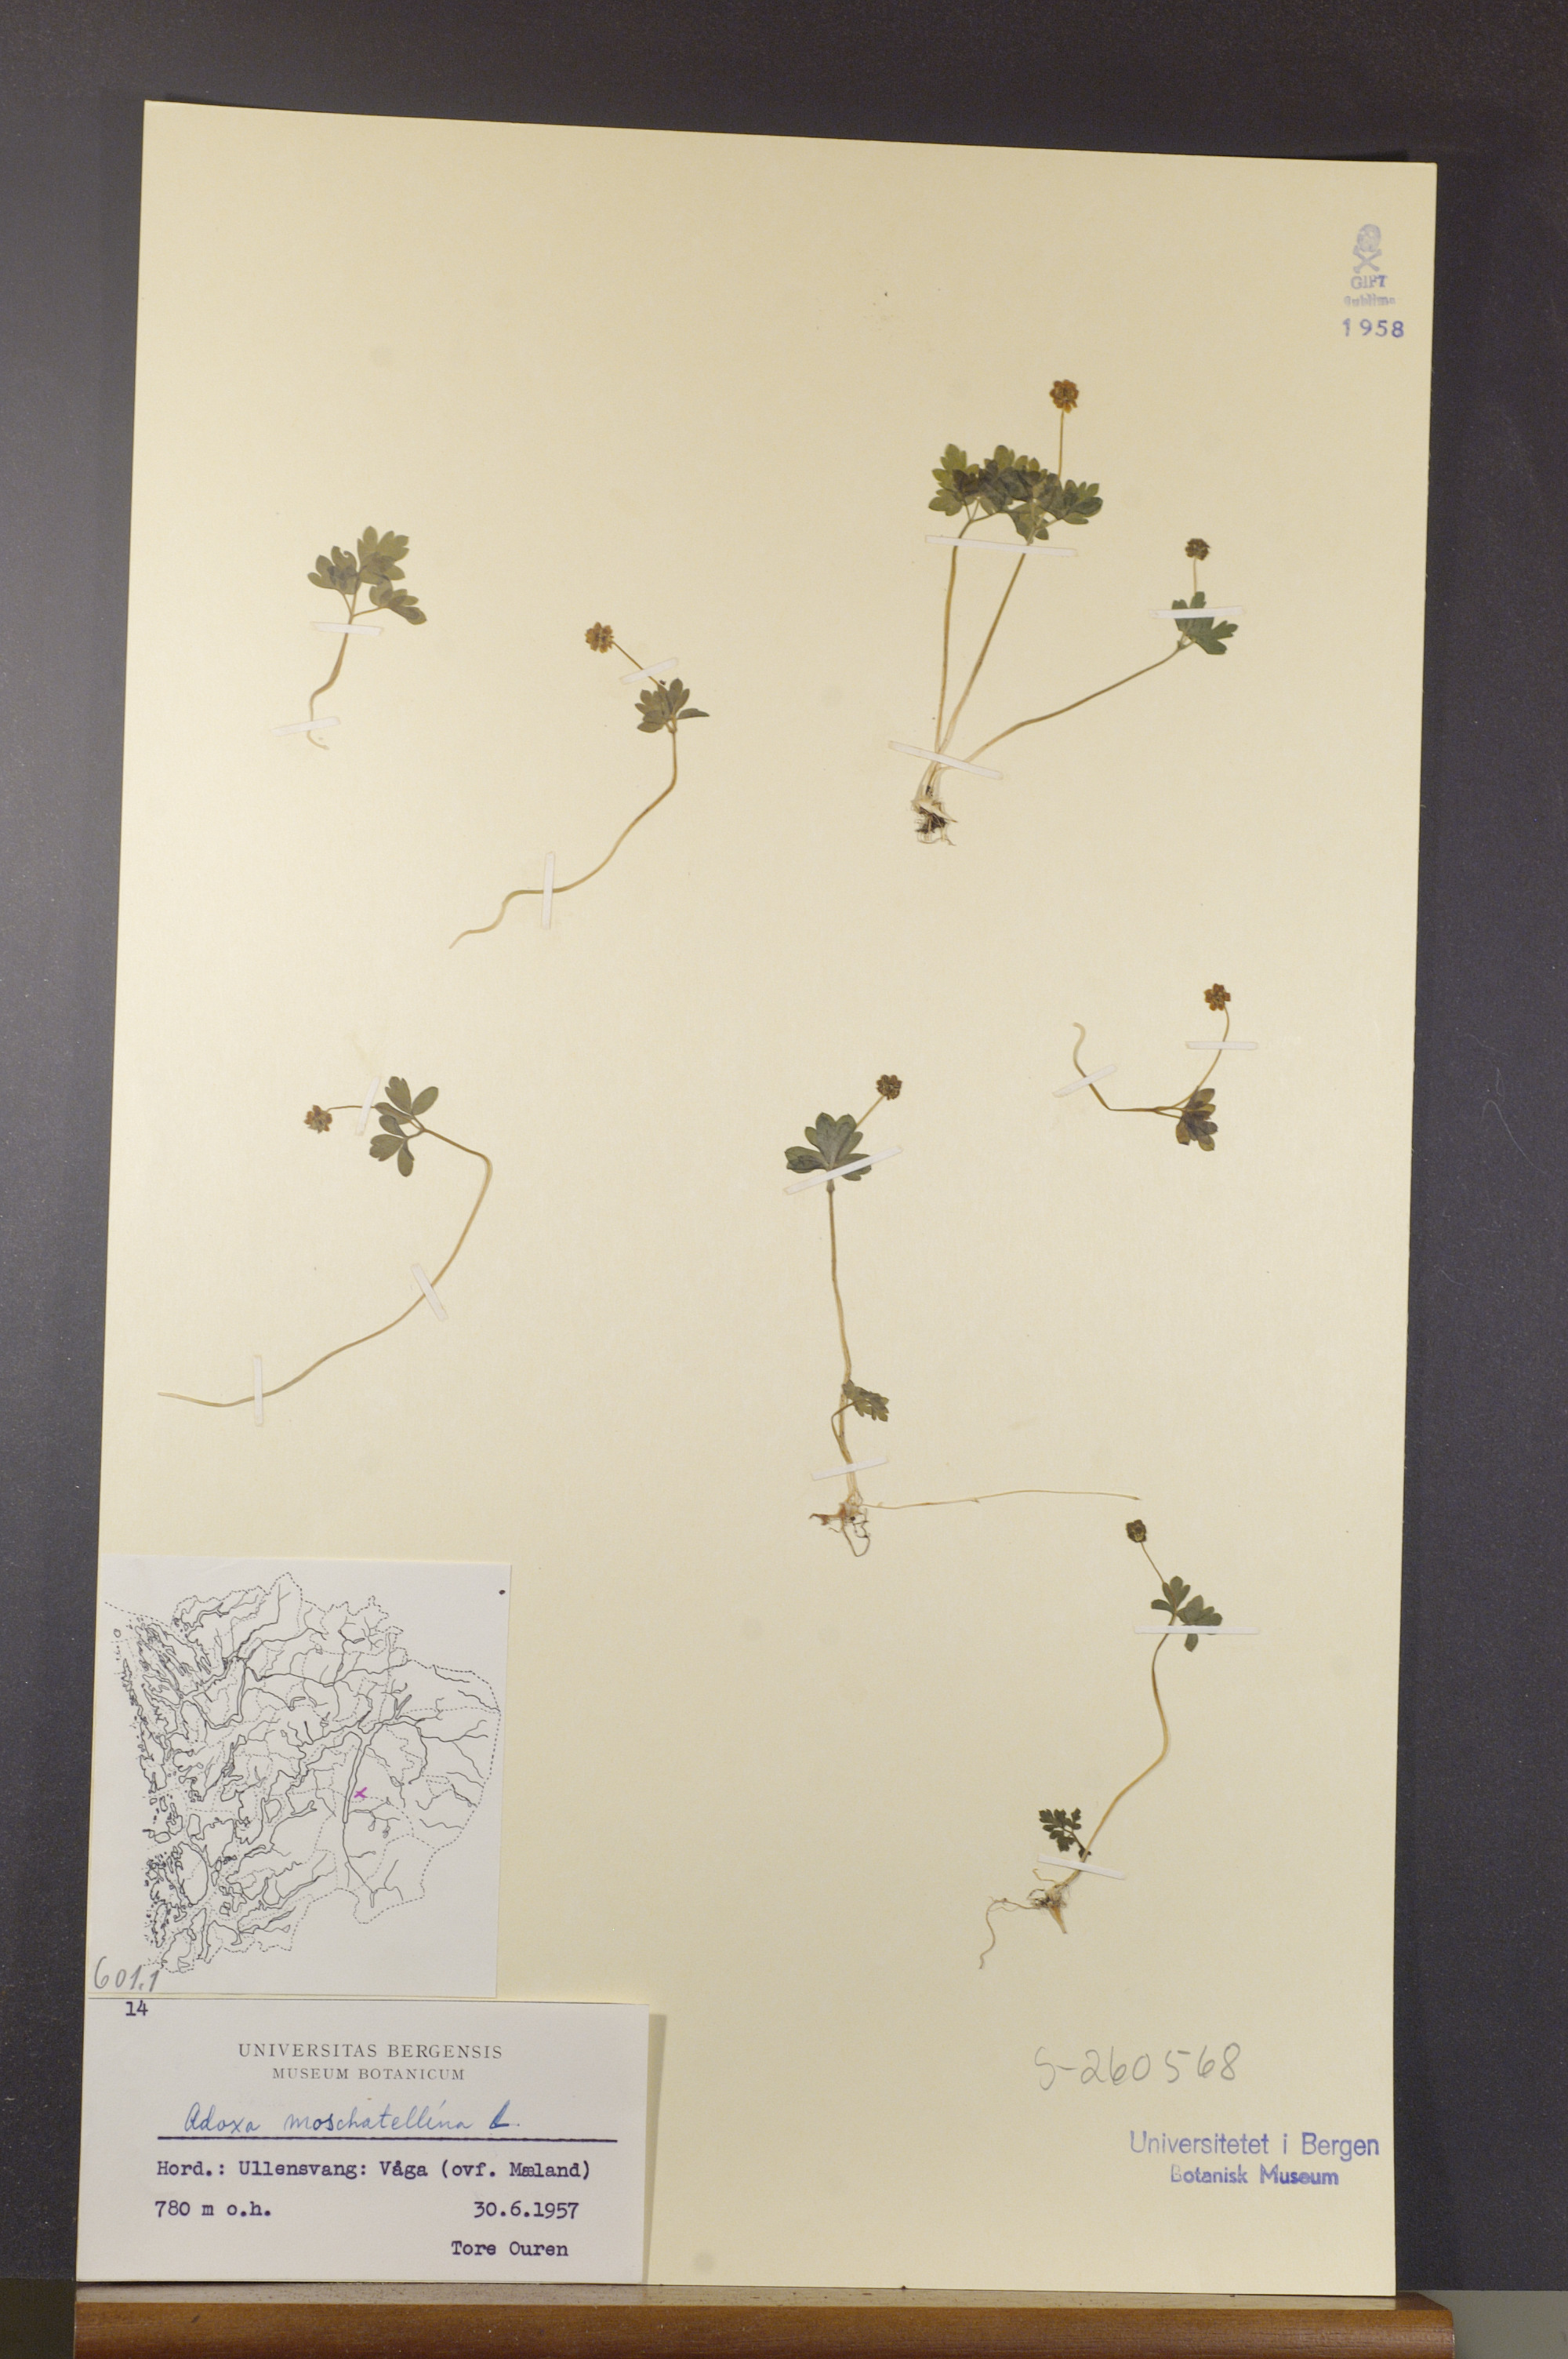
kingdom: Plantae
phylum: Tracheophyta
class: Magnoliopsida
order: Dipsacales
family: Viburnaceae
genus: Adoxa
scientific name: Adoxa moschatellina
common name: Moschatel
